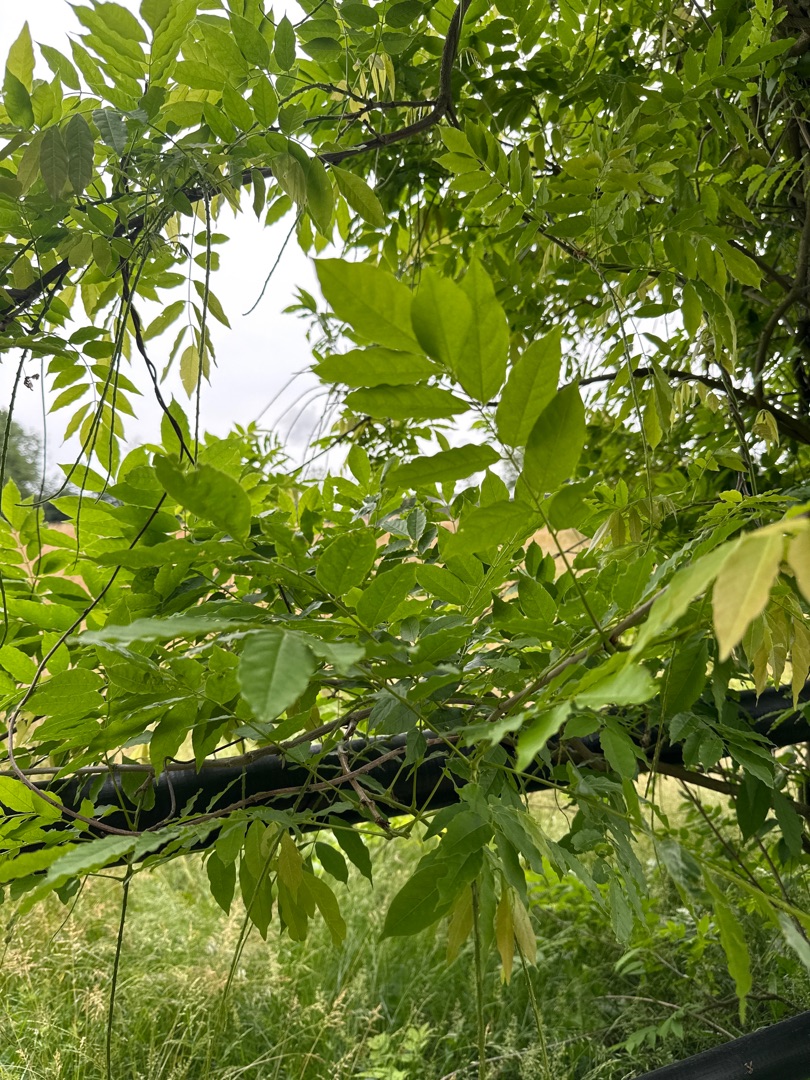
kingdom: Plantae
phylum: Tracheophyta
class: Magnoliopsida
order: Lamiales
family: Oleaceae
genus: Fraxinus
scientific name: Fraxinus excelsior
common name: Ask
